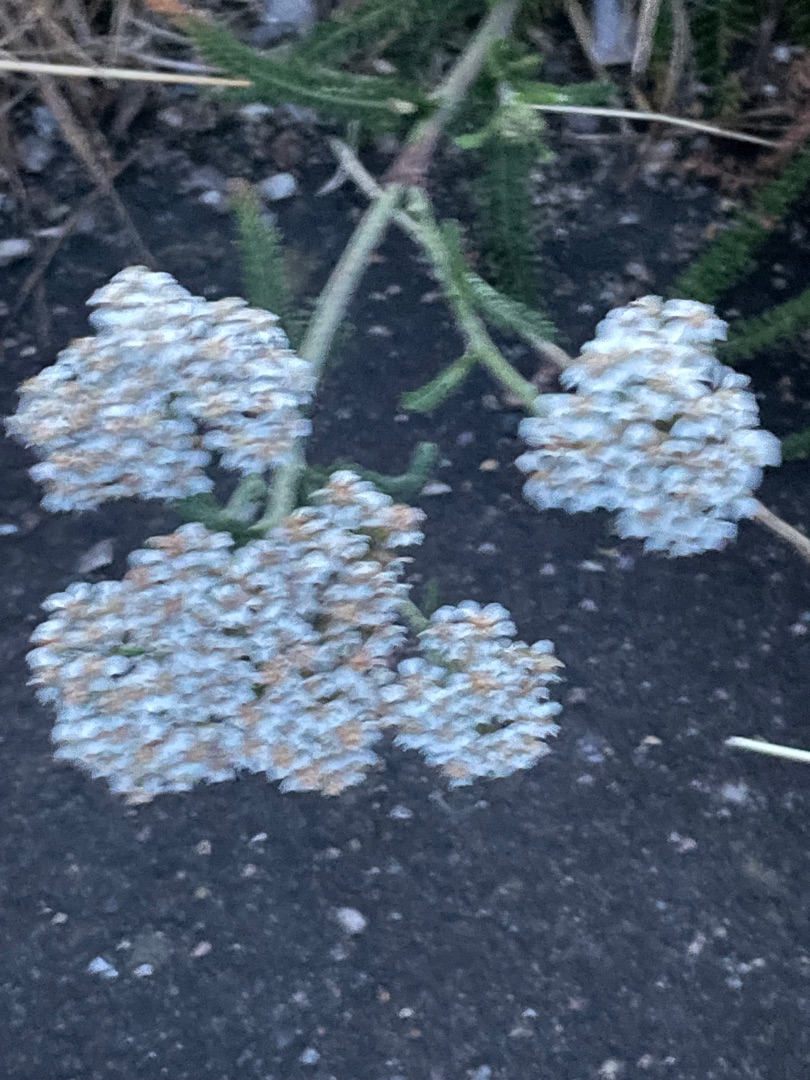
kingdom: Plantae
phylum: Tracheophyta
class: Magnoliopsida
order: Asterales
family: Asteraceae
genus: Achillea
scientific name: Achillea millefolium
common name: Almindelig røllike
